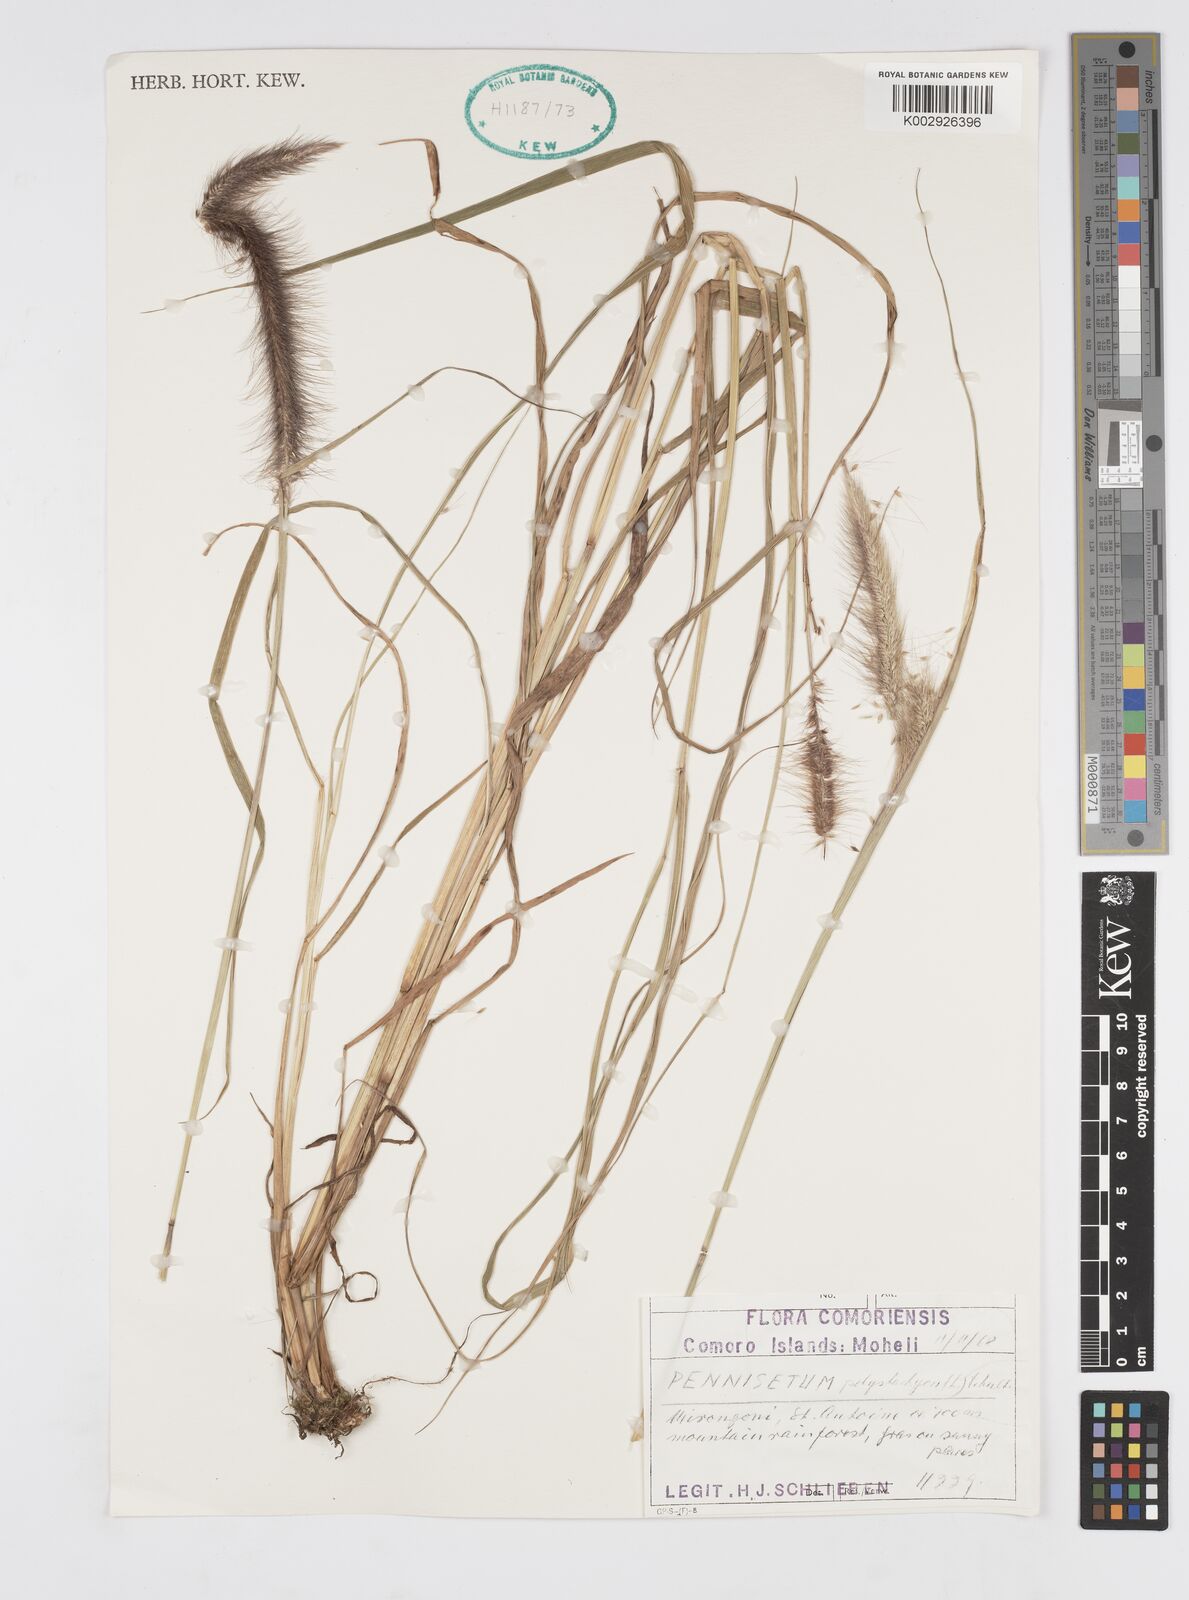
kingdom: Plantae
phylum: Tracheophyta
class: Liliopsida
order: Poales
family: Poaceae
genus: Setaria
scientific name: Setaria parviflora
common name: Knotroot bristle-grass
